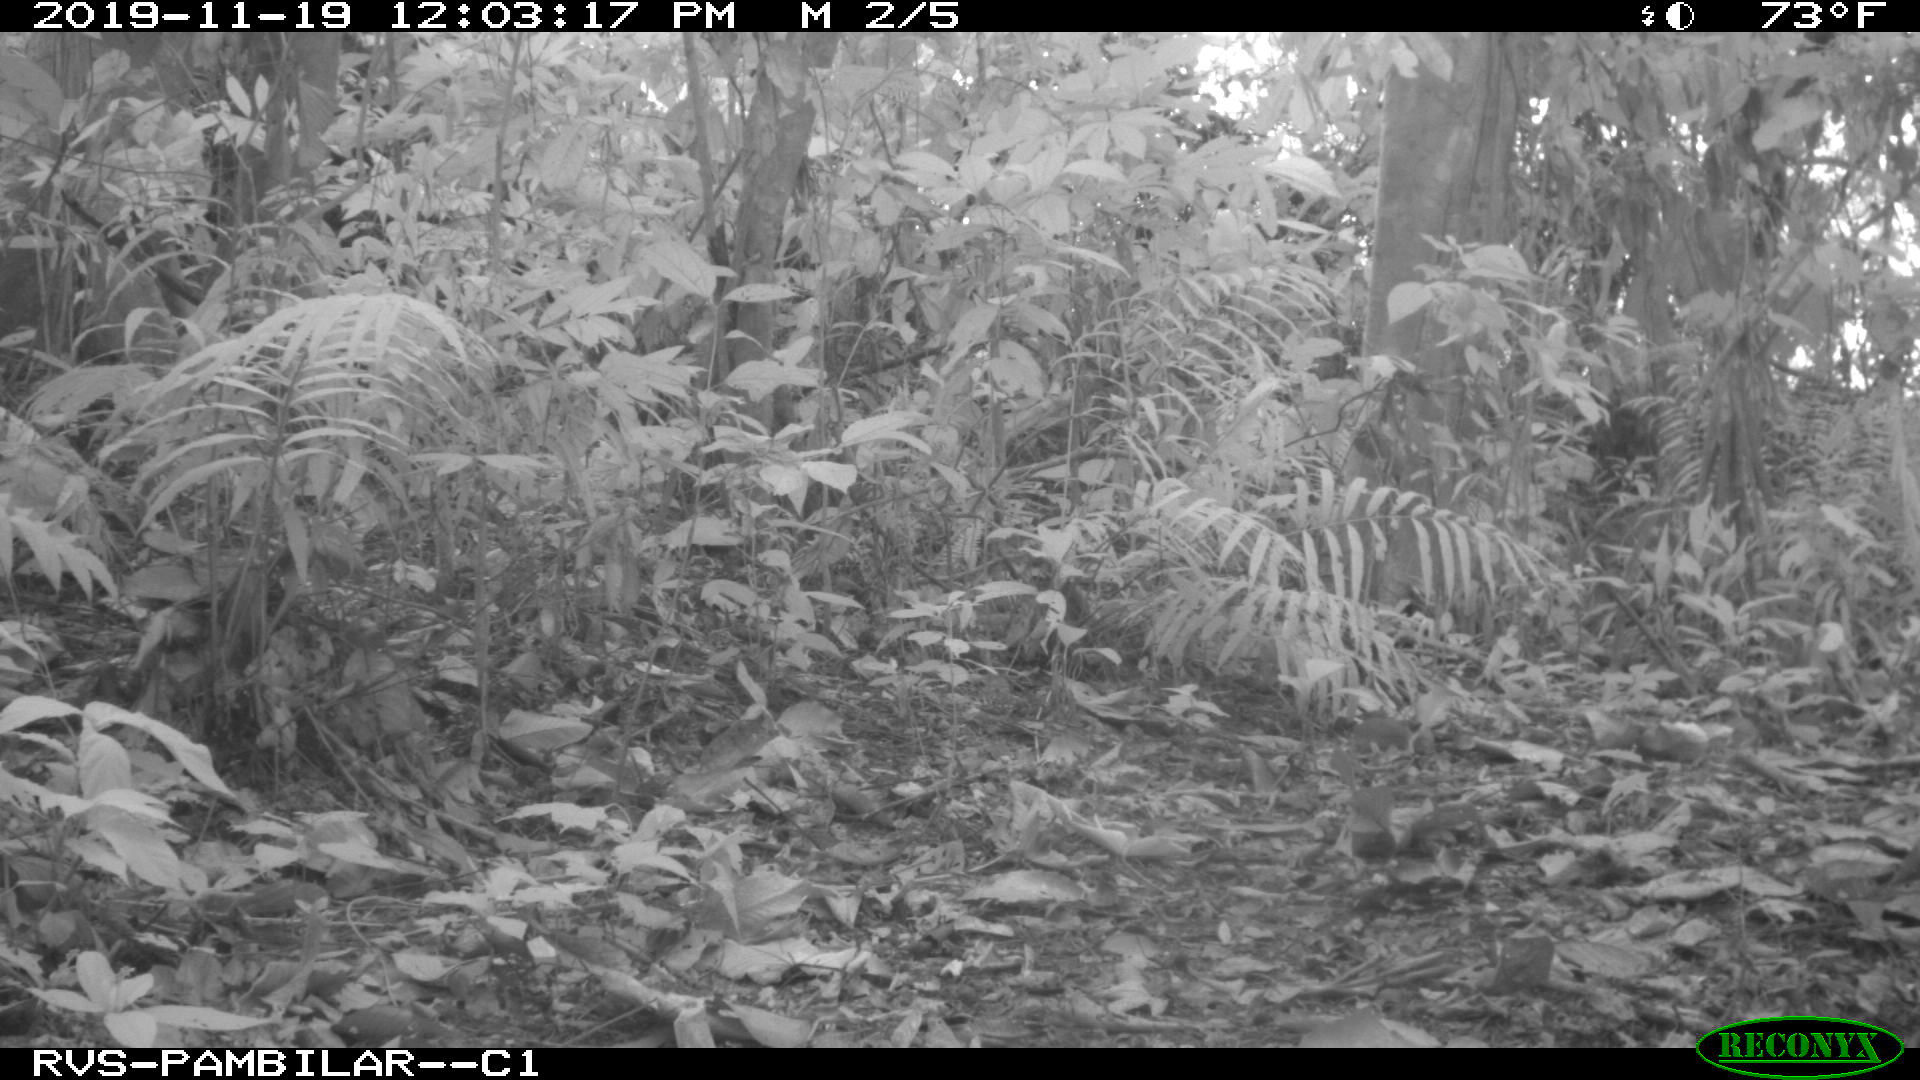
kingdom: Animalia
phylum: Chordata
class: Mammalia
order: Rodentia
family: Dasyproctidae
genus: Dasyprocta
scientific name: Dasyprocta punctata
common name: Central american agouti
